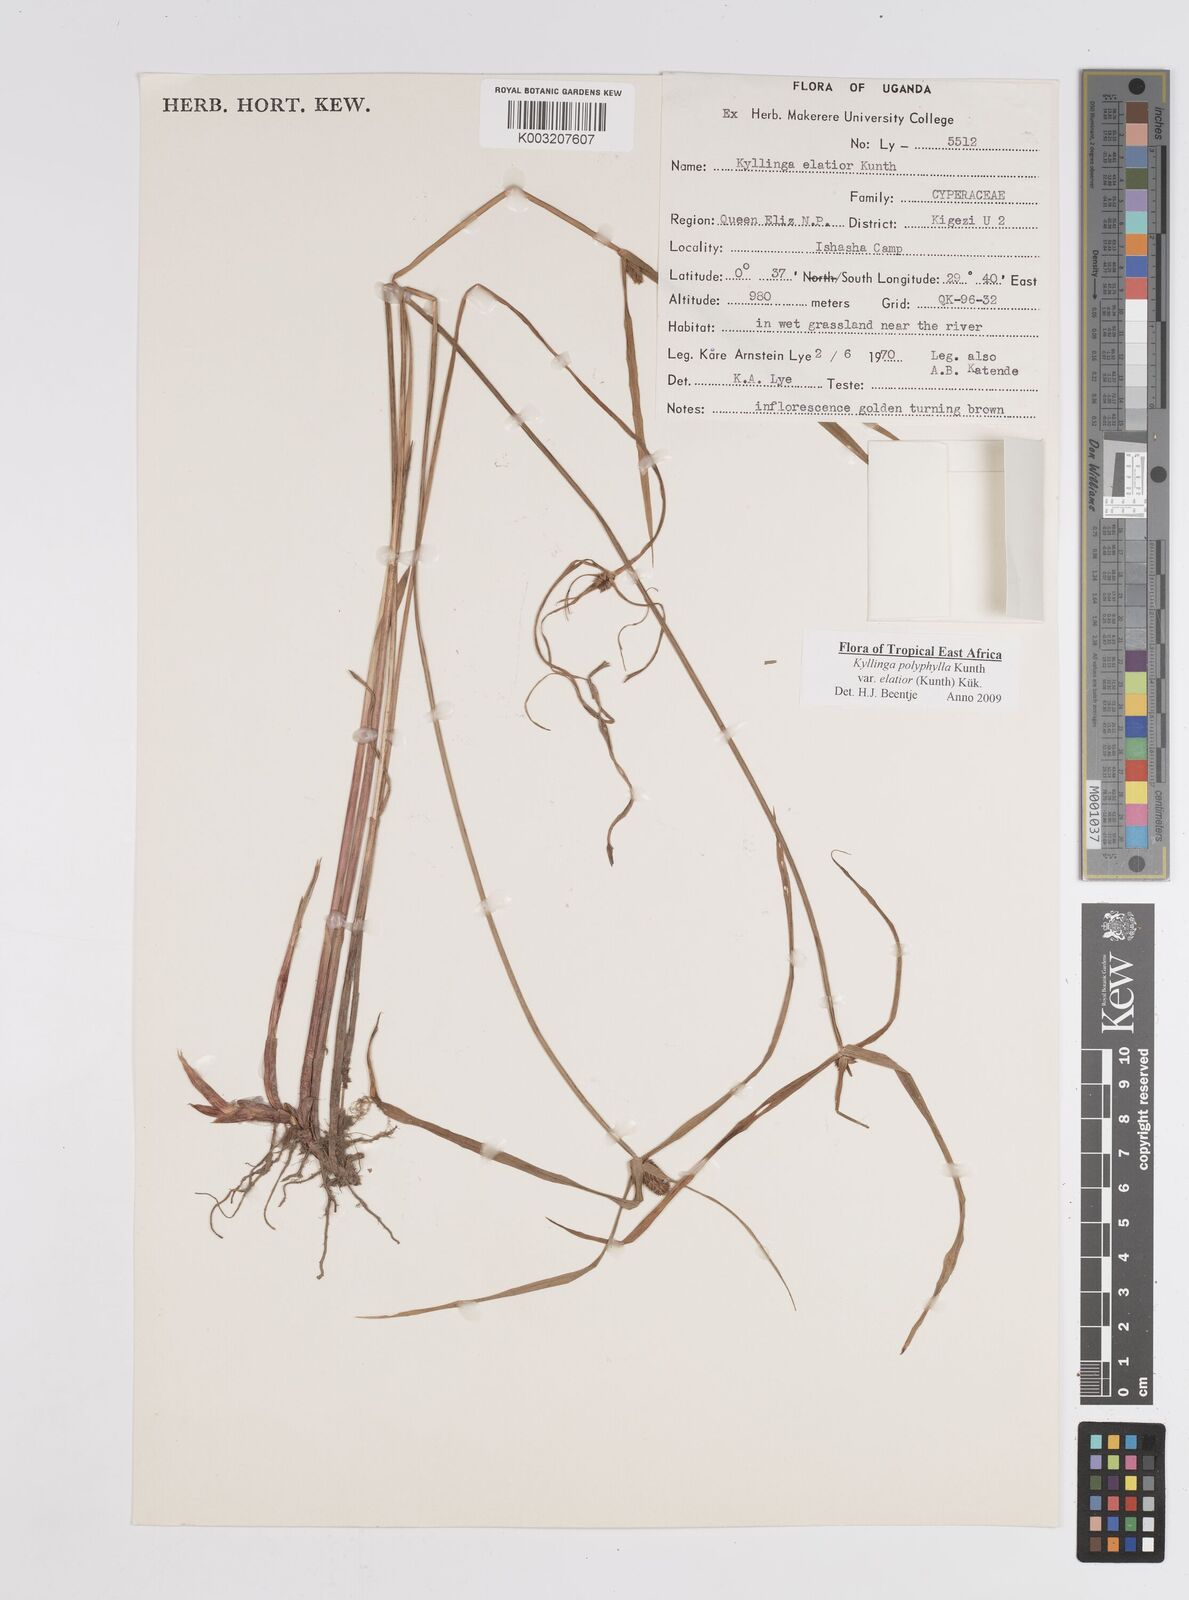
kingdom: Plantae
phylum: Tracheophyta
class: Liliopsida
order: Poales
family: Cyperaceae
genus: Cyperus
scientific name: Cyperus
